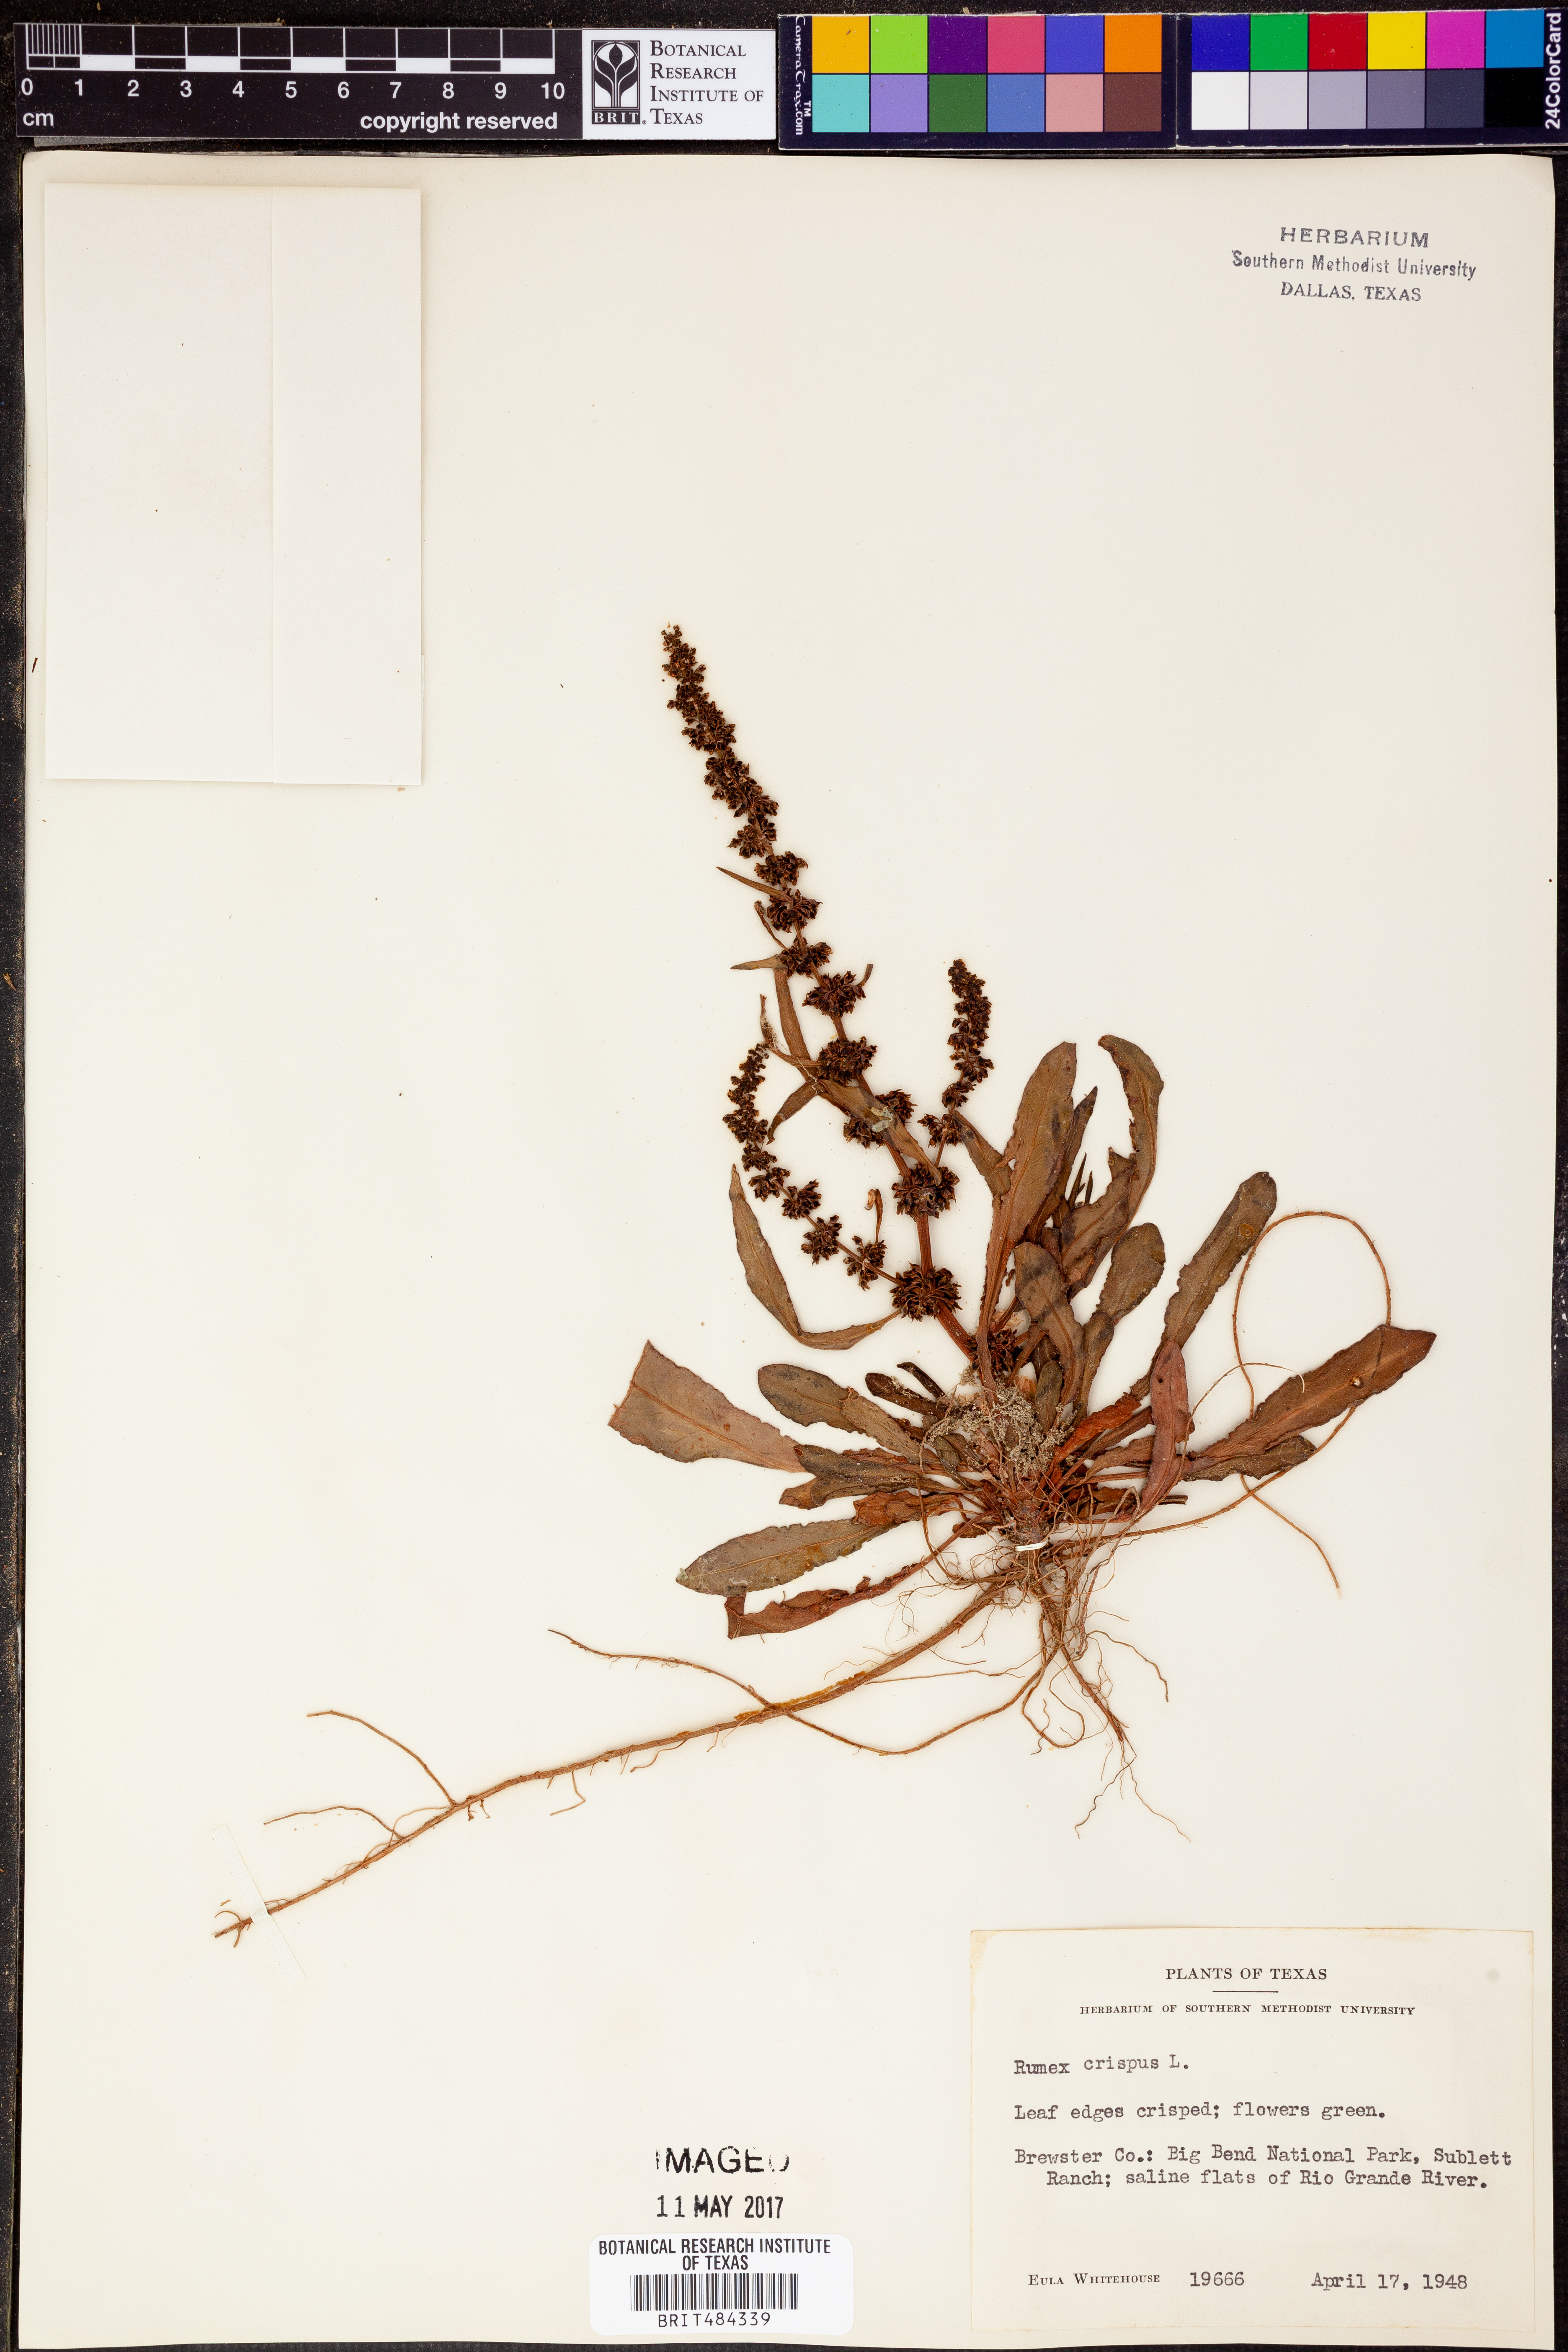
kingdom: Plantae
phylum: Tracheophyta
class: Magnoliopsida
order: Caryophyllales
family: Polygonaceae
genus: Rumex
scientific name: Rumex crispus
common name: Curled dock
